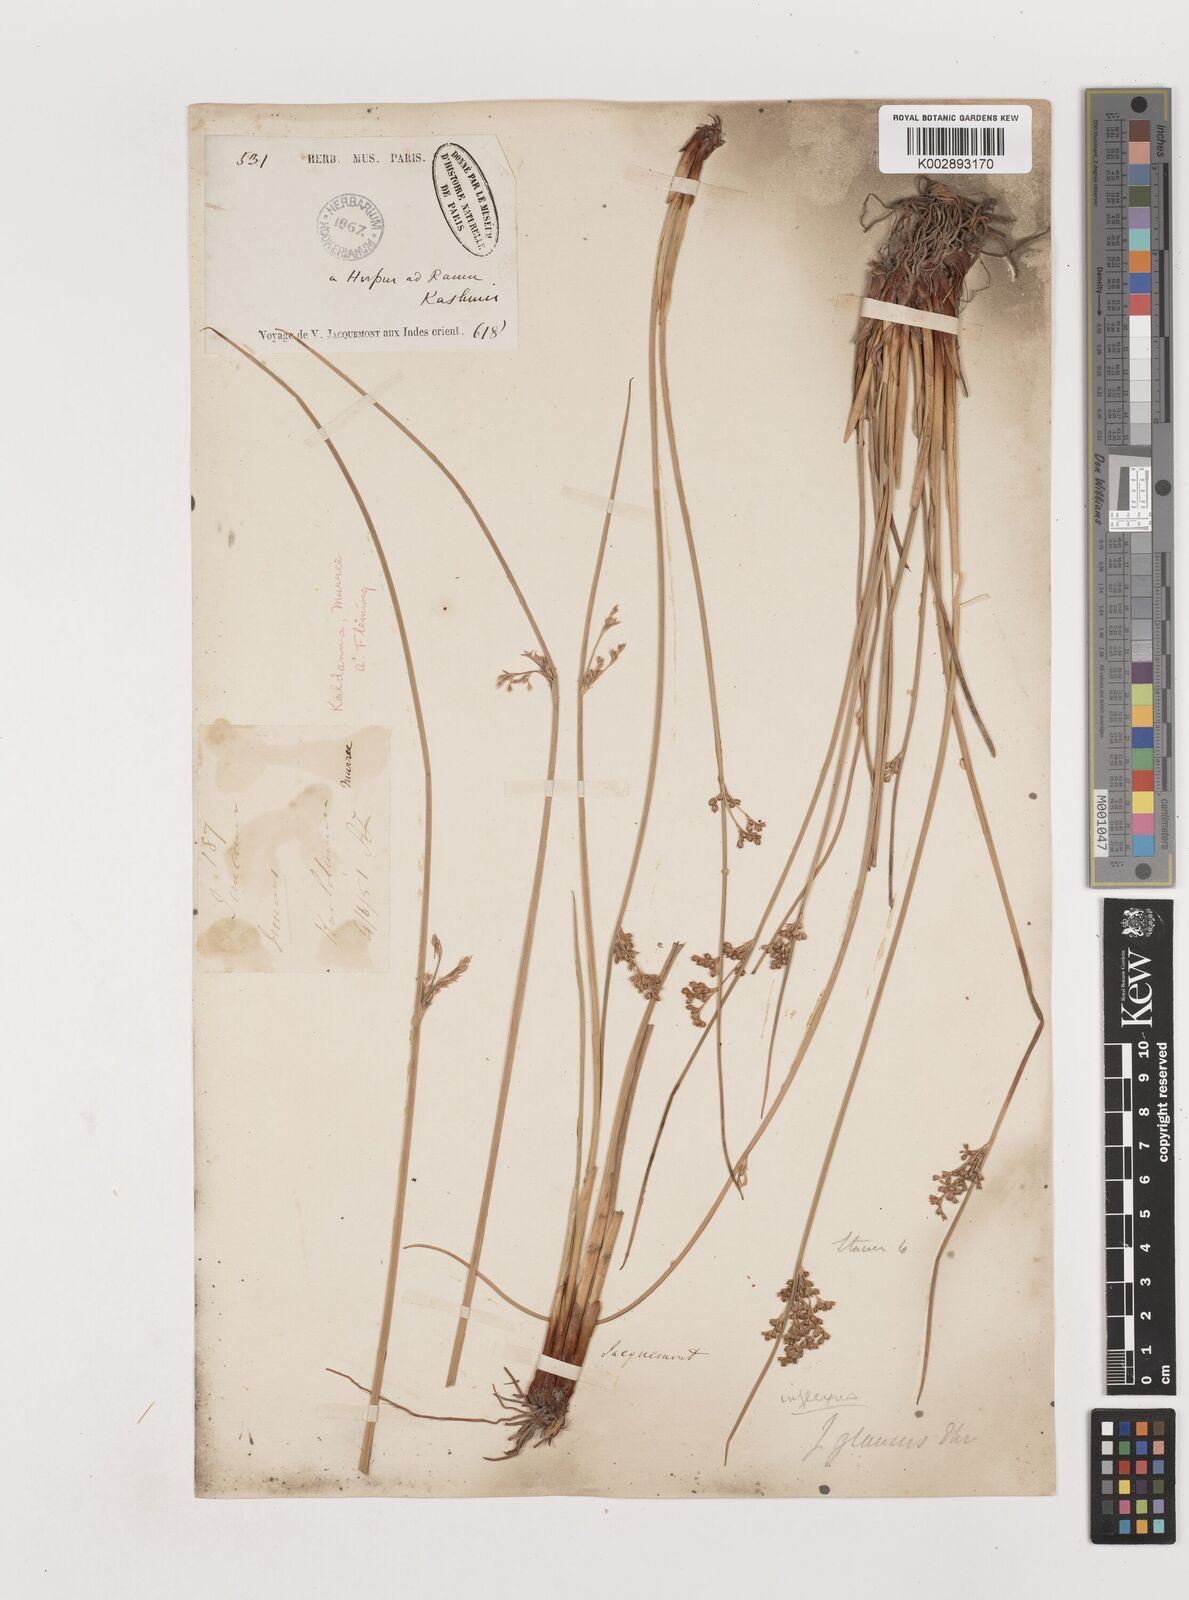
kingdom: Plantae
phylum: Tracheophyta
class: Liliopsida
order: Poales
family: Juncaceae
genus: Juncus
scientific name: Juncus inflexus
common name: Hard rush
